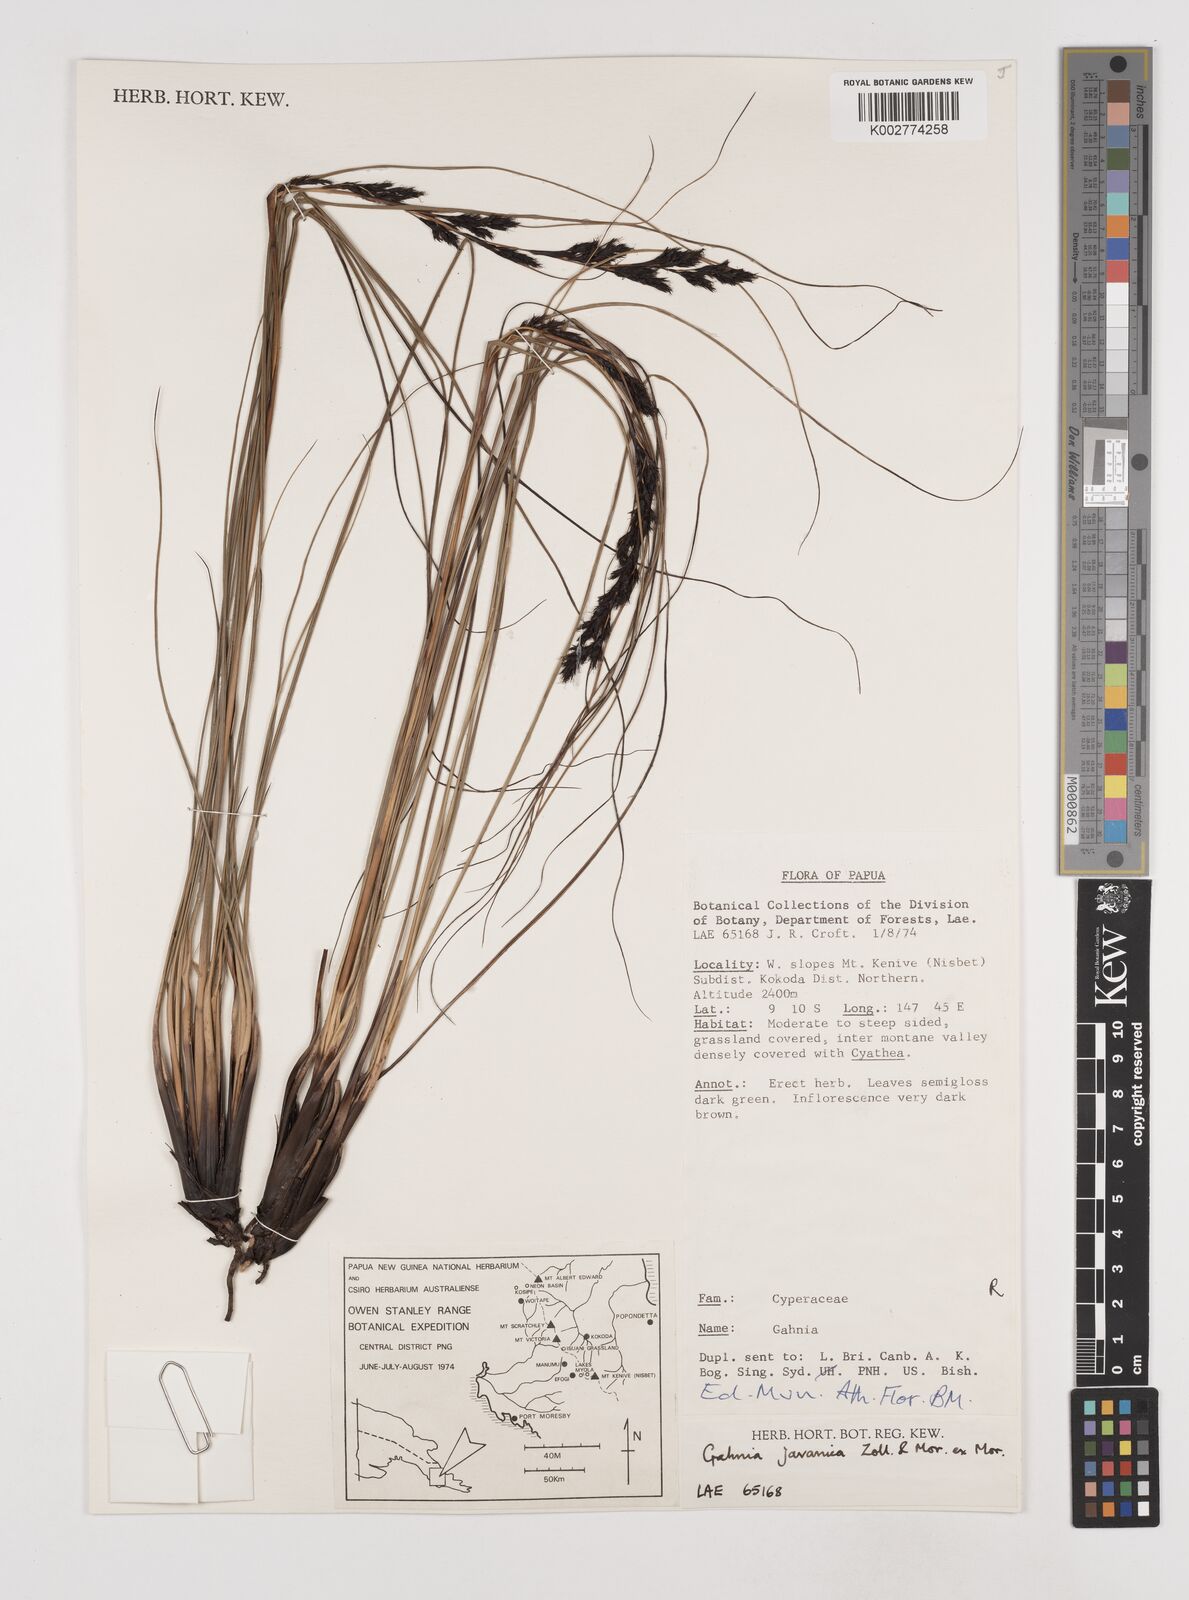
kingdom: Plantae
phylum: Tracheophyta
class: Liliopsida
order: Poales
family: Cyperaceae
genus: Gahnia
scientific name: Gahnia javanica
